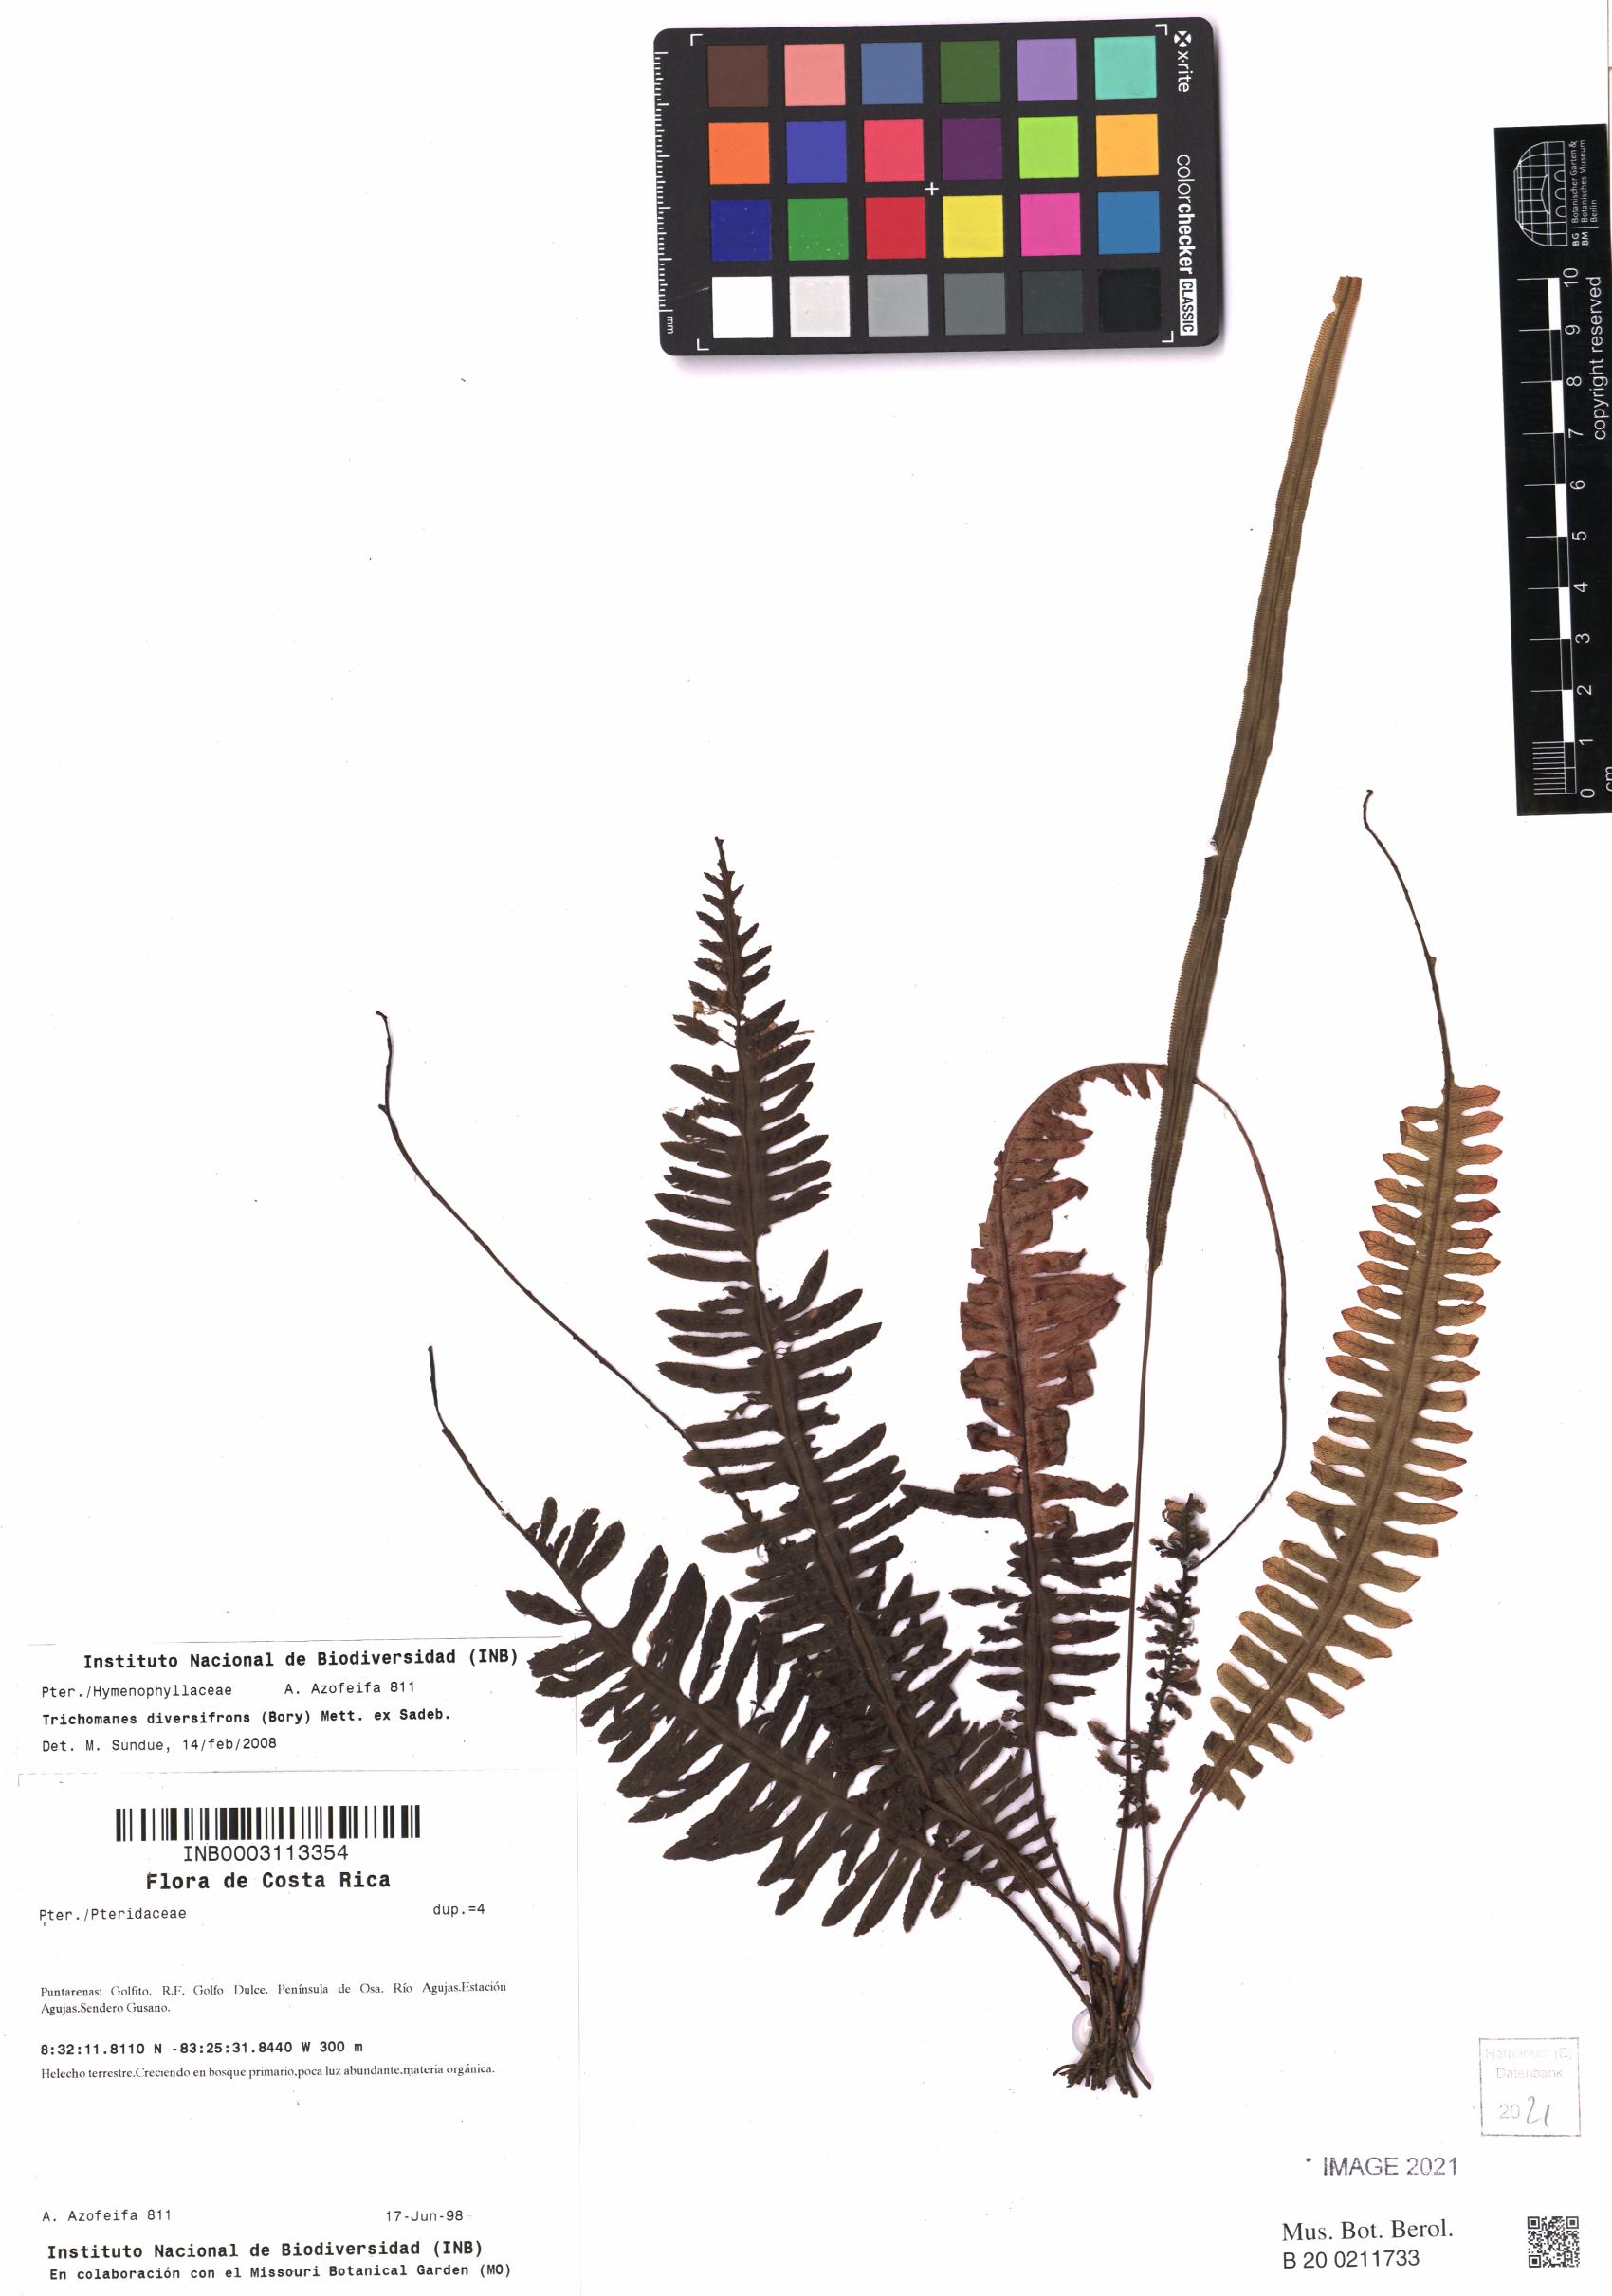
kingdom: Plantae
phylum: Tracheophyta
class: Polypodiopsida
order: Hymenophyllales
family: Hymenophyllaceae
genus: Trichomanes
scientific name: Trichomanes diversifrons
